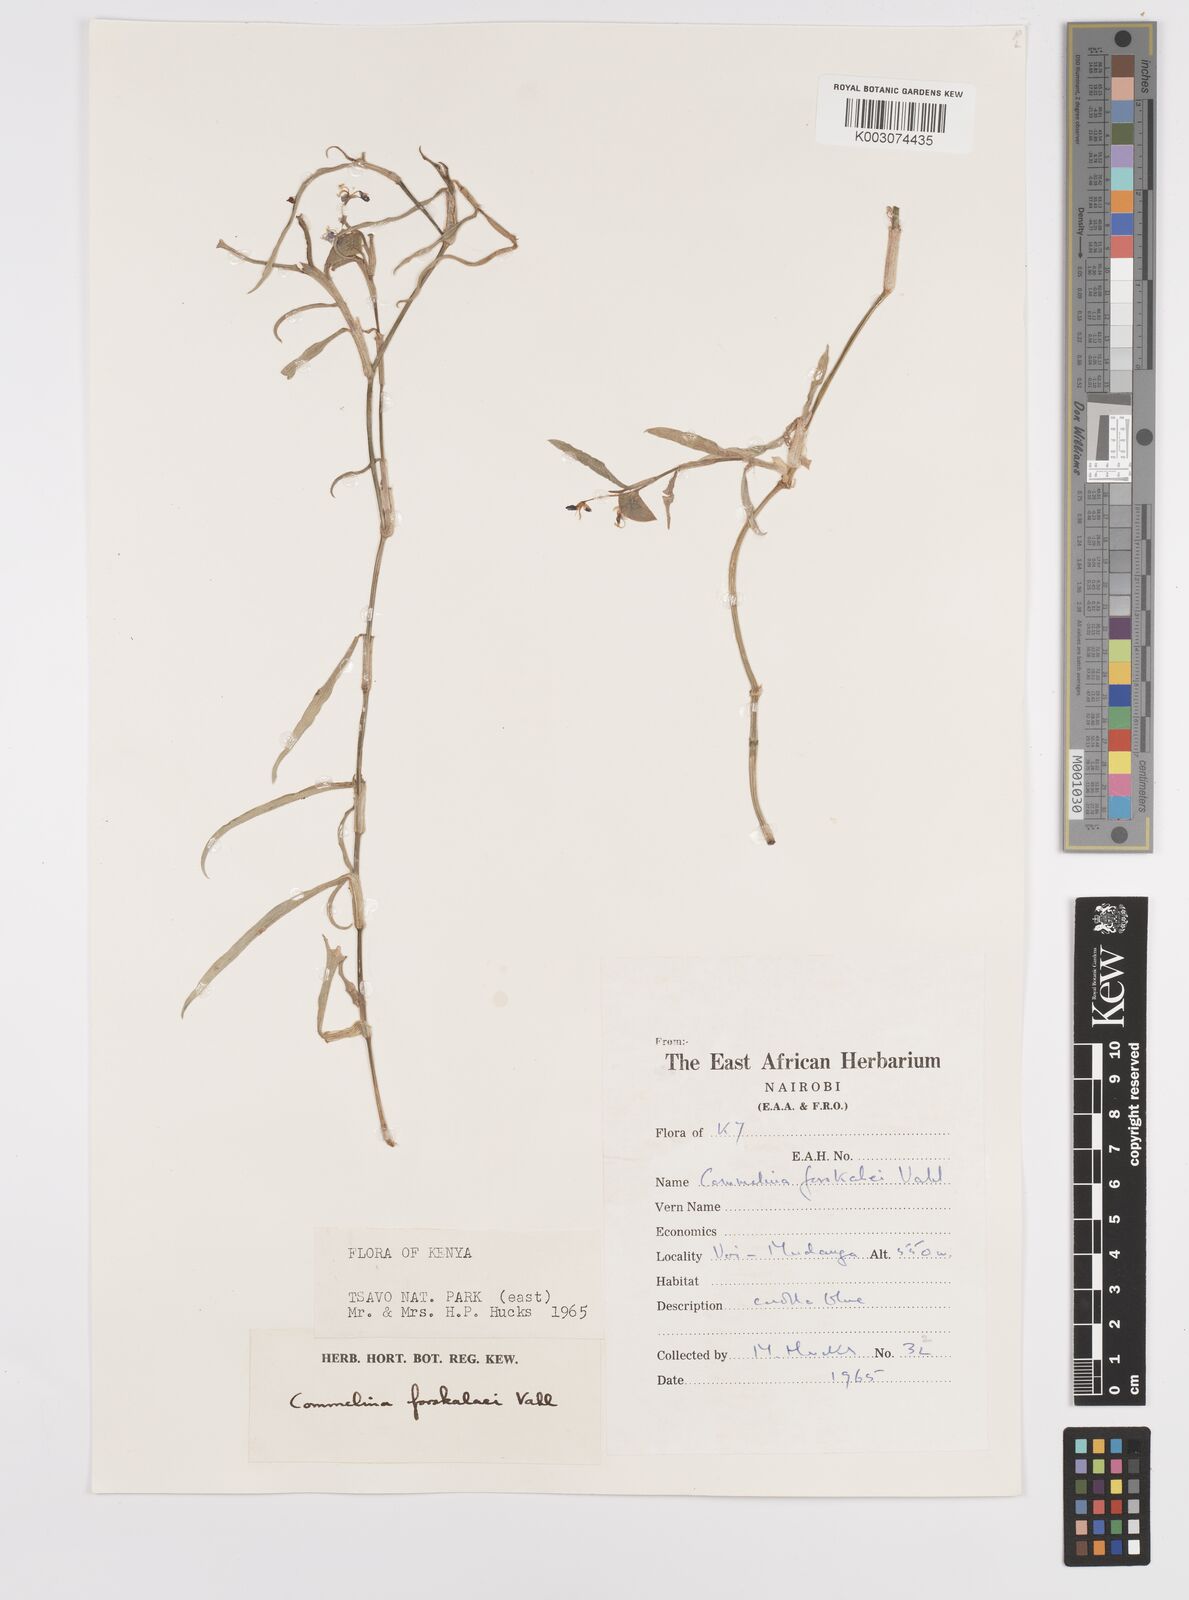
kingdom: Plantae
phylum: Tracheophyta
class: Liliopsida
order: Commelinales
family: Commelinaceae
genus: Commelina
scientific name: Commelina forskaolii
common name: Rat's ear
